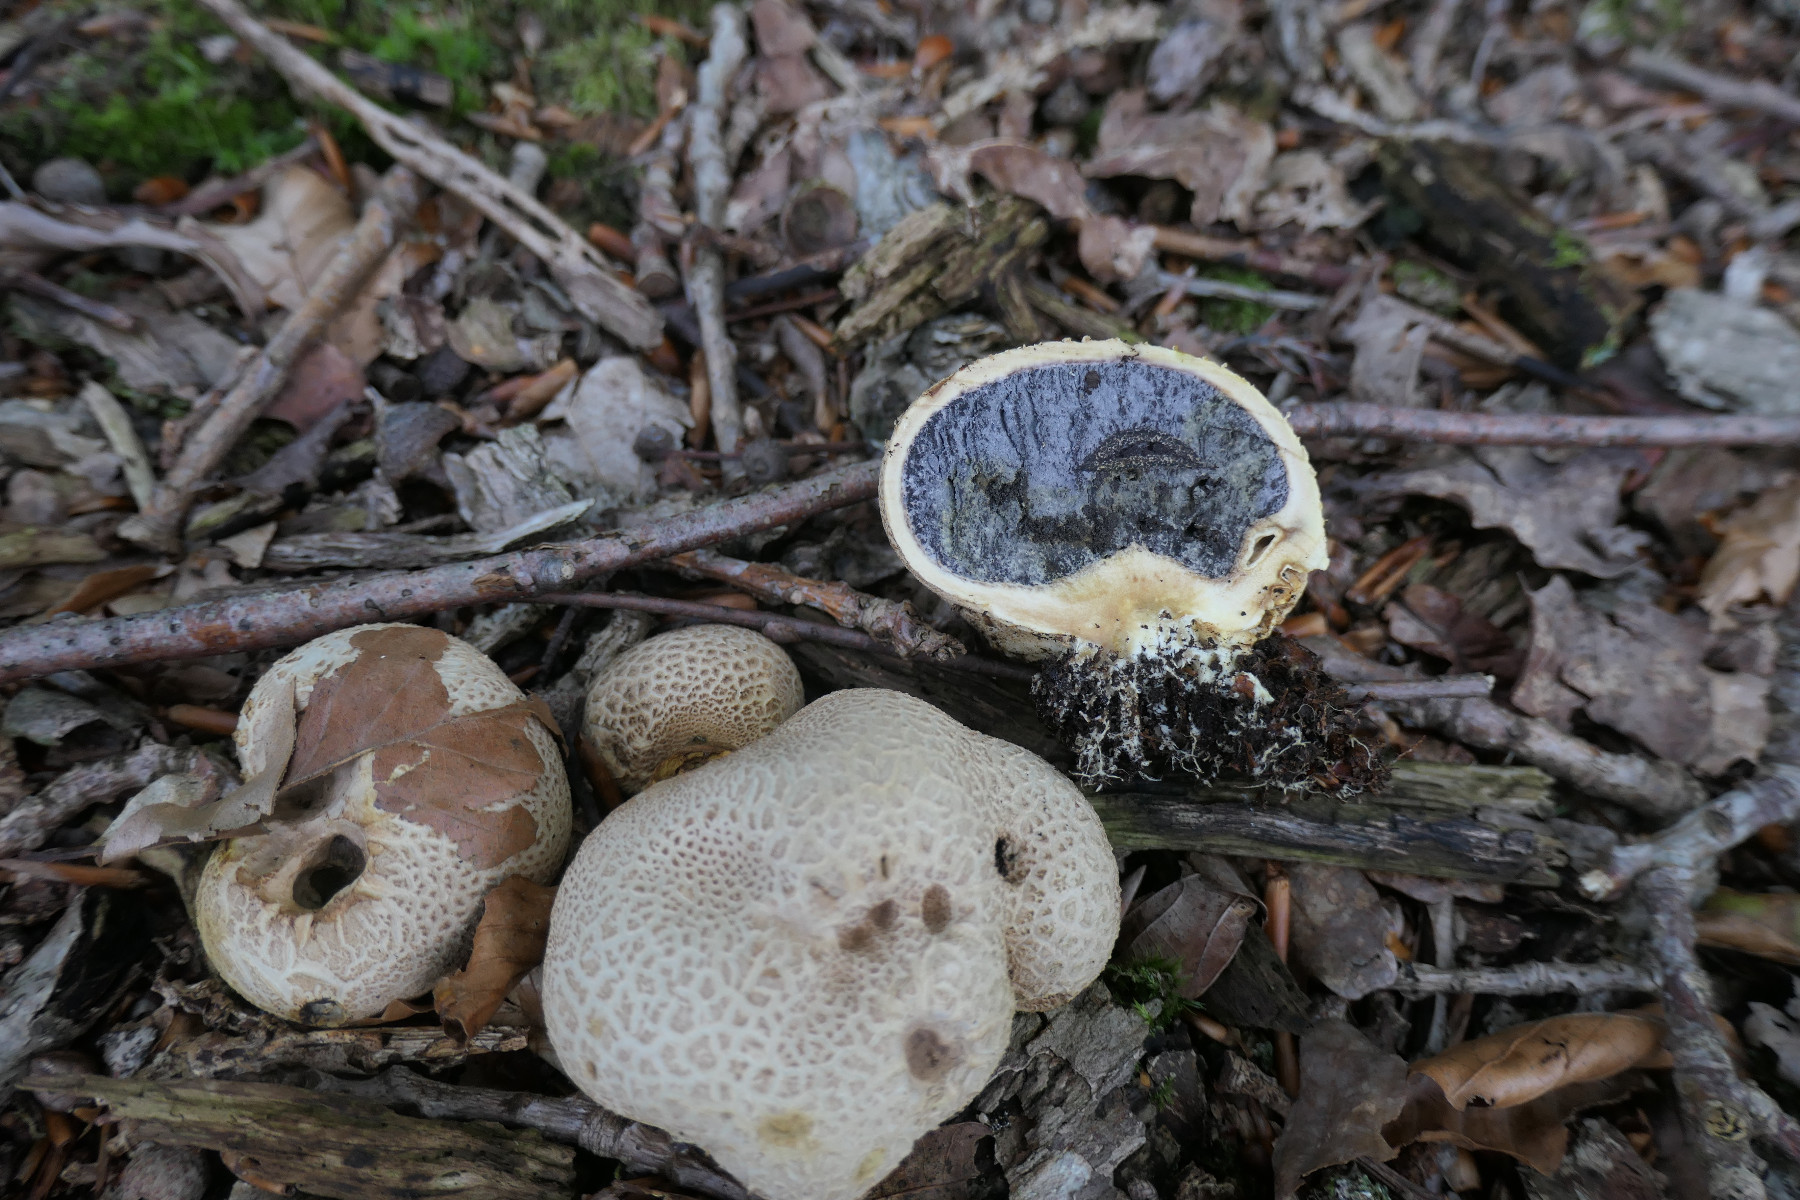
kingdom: Fungi
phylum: Basidiomycota
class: Agaricomycetes
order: Boletales
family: Sclerodermataceae
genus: Scleroderma
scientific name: Scleroderma citrinum
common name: almindelig bruskbold
